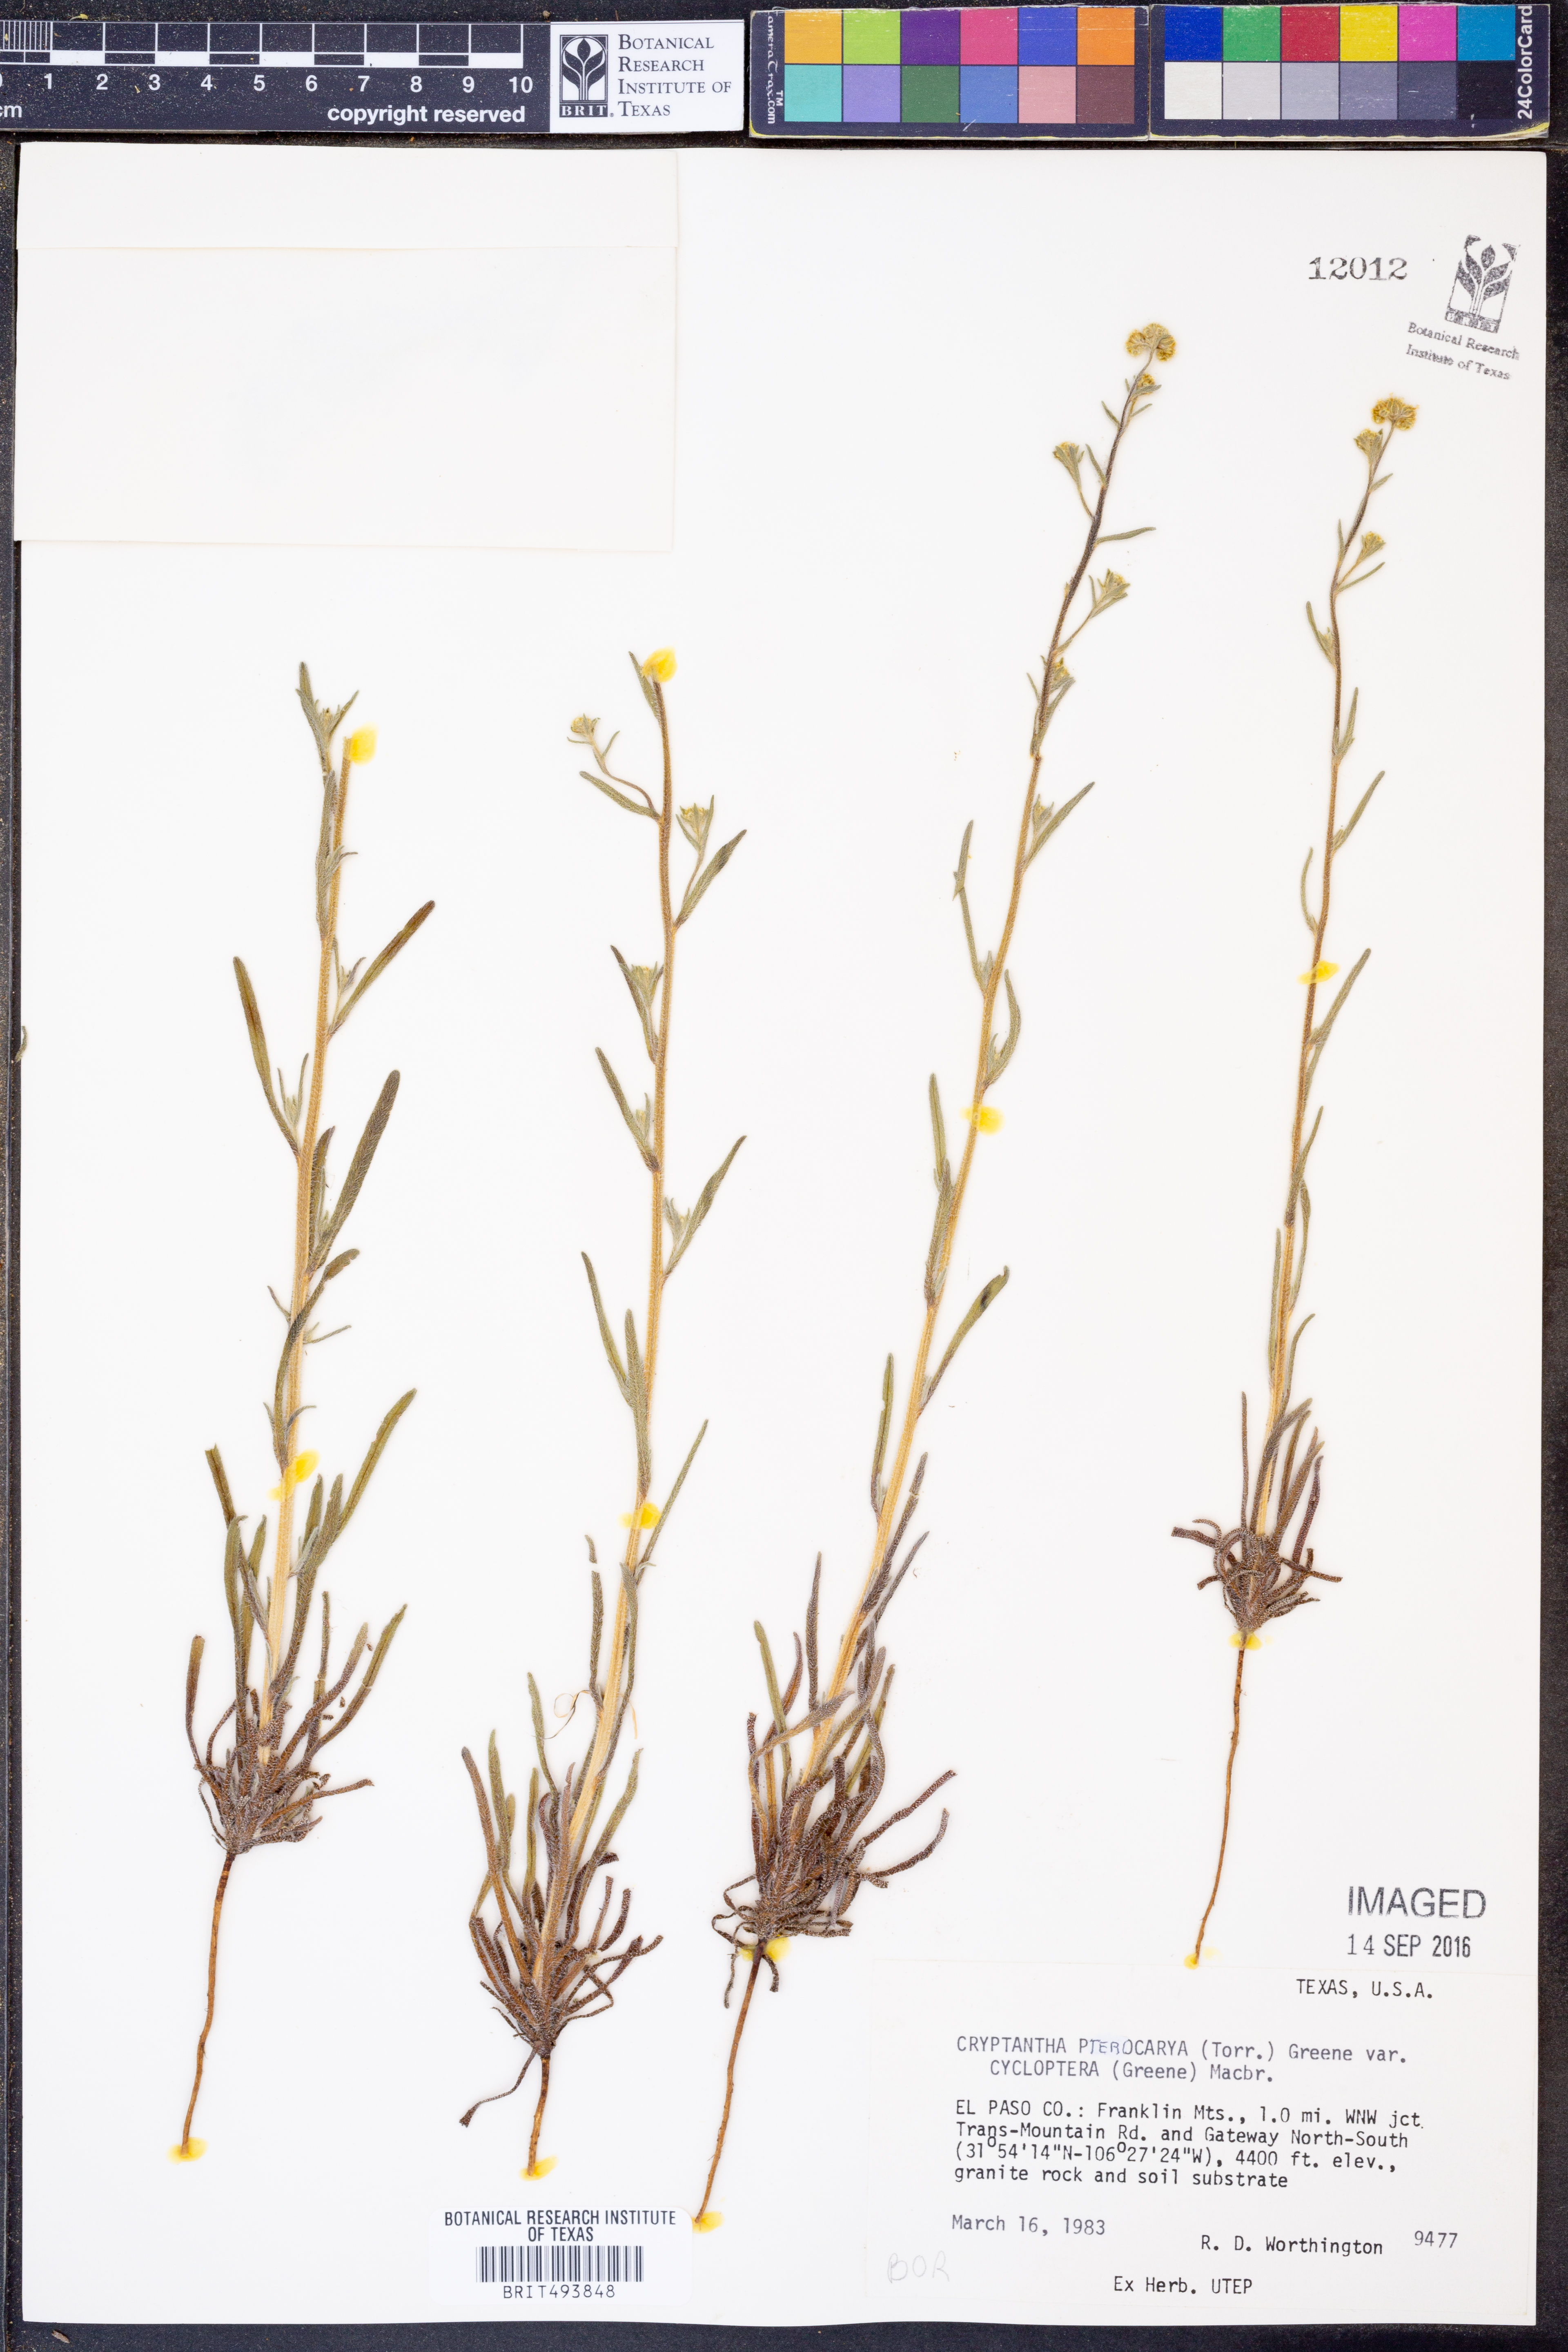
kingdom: Plantae
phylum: Tracheophyta
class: Magnoliopsida
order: Boraginales
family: Boraginaceae
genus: Cryptantha
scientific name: Cryptantha cycloptera
